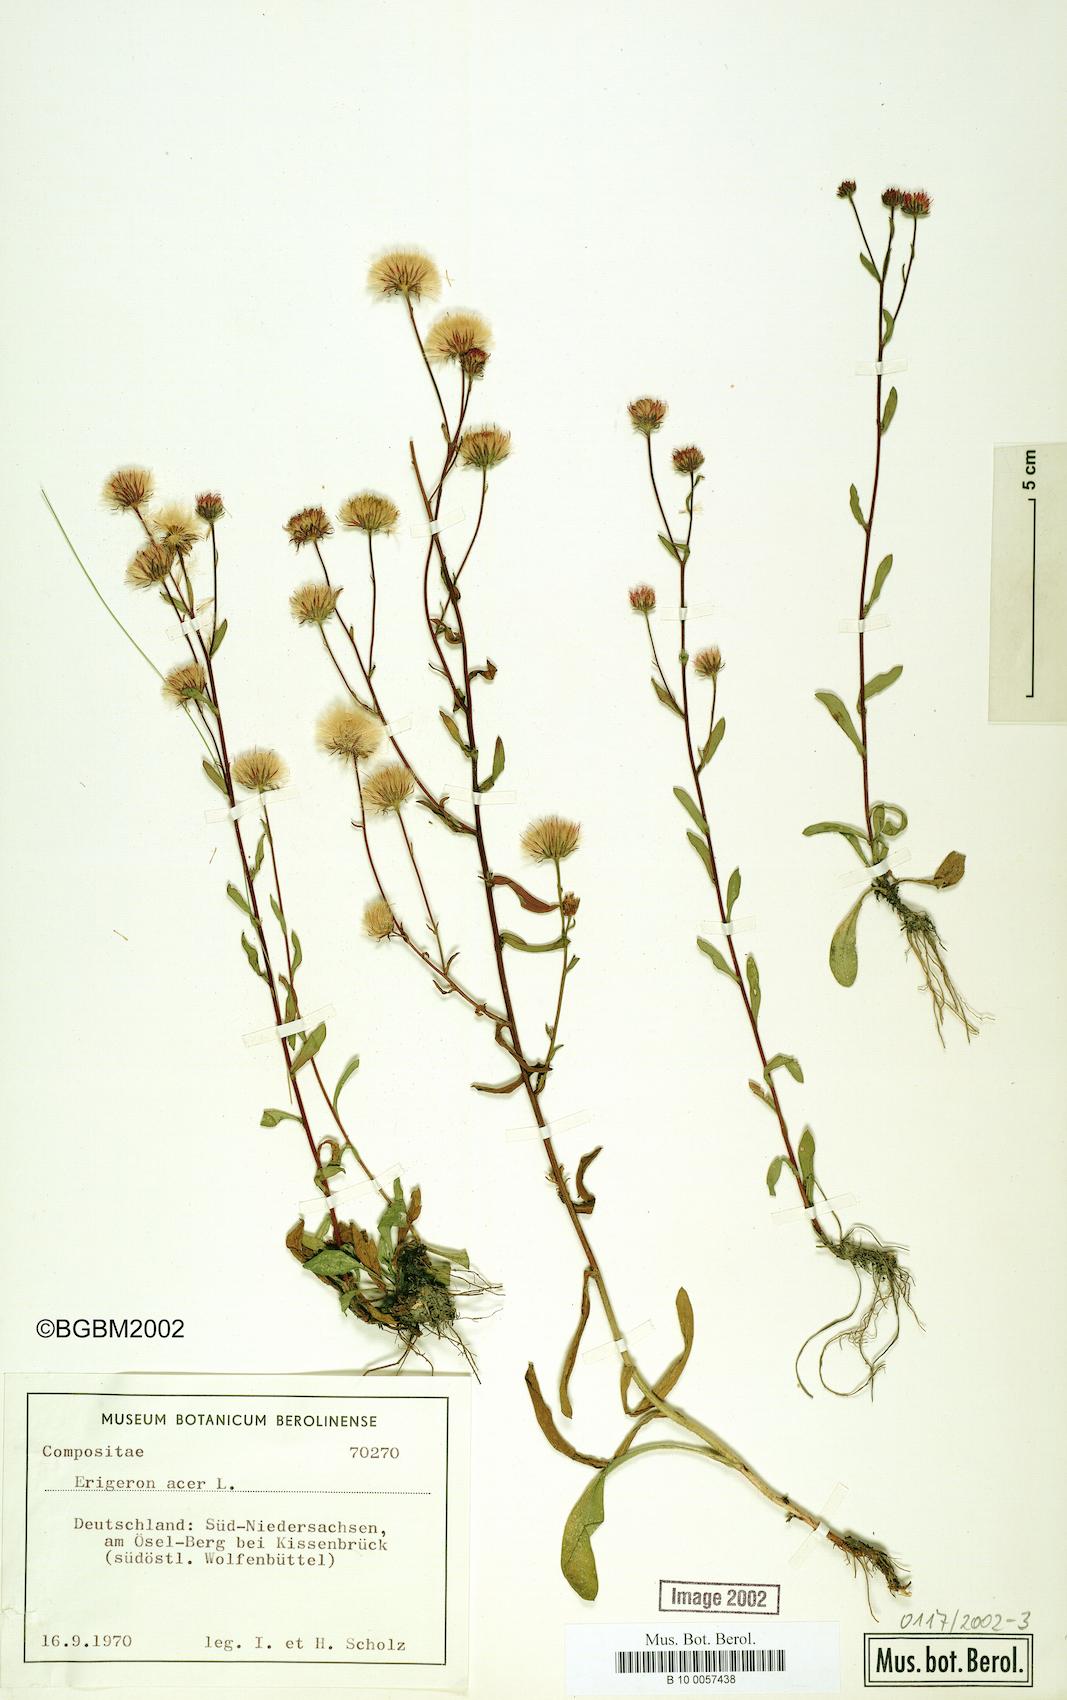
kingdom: Plantae
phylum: Tracheophyta
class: Magnoliopsida
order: Asterales
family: Asteraceae
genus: Erigeron
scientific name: Erigeron muralis
